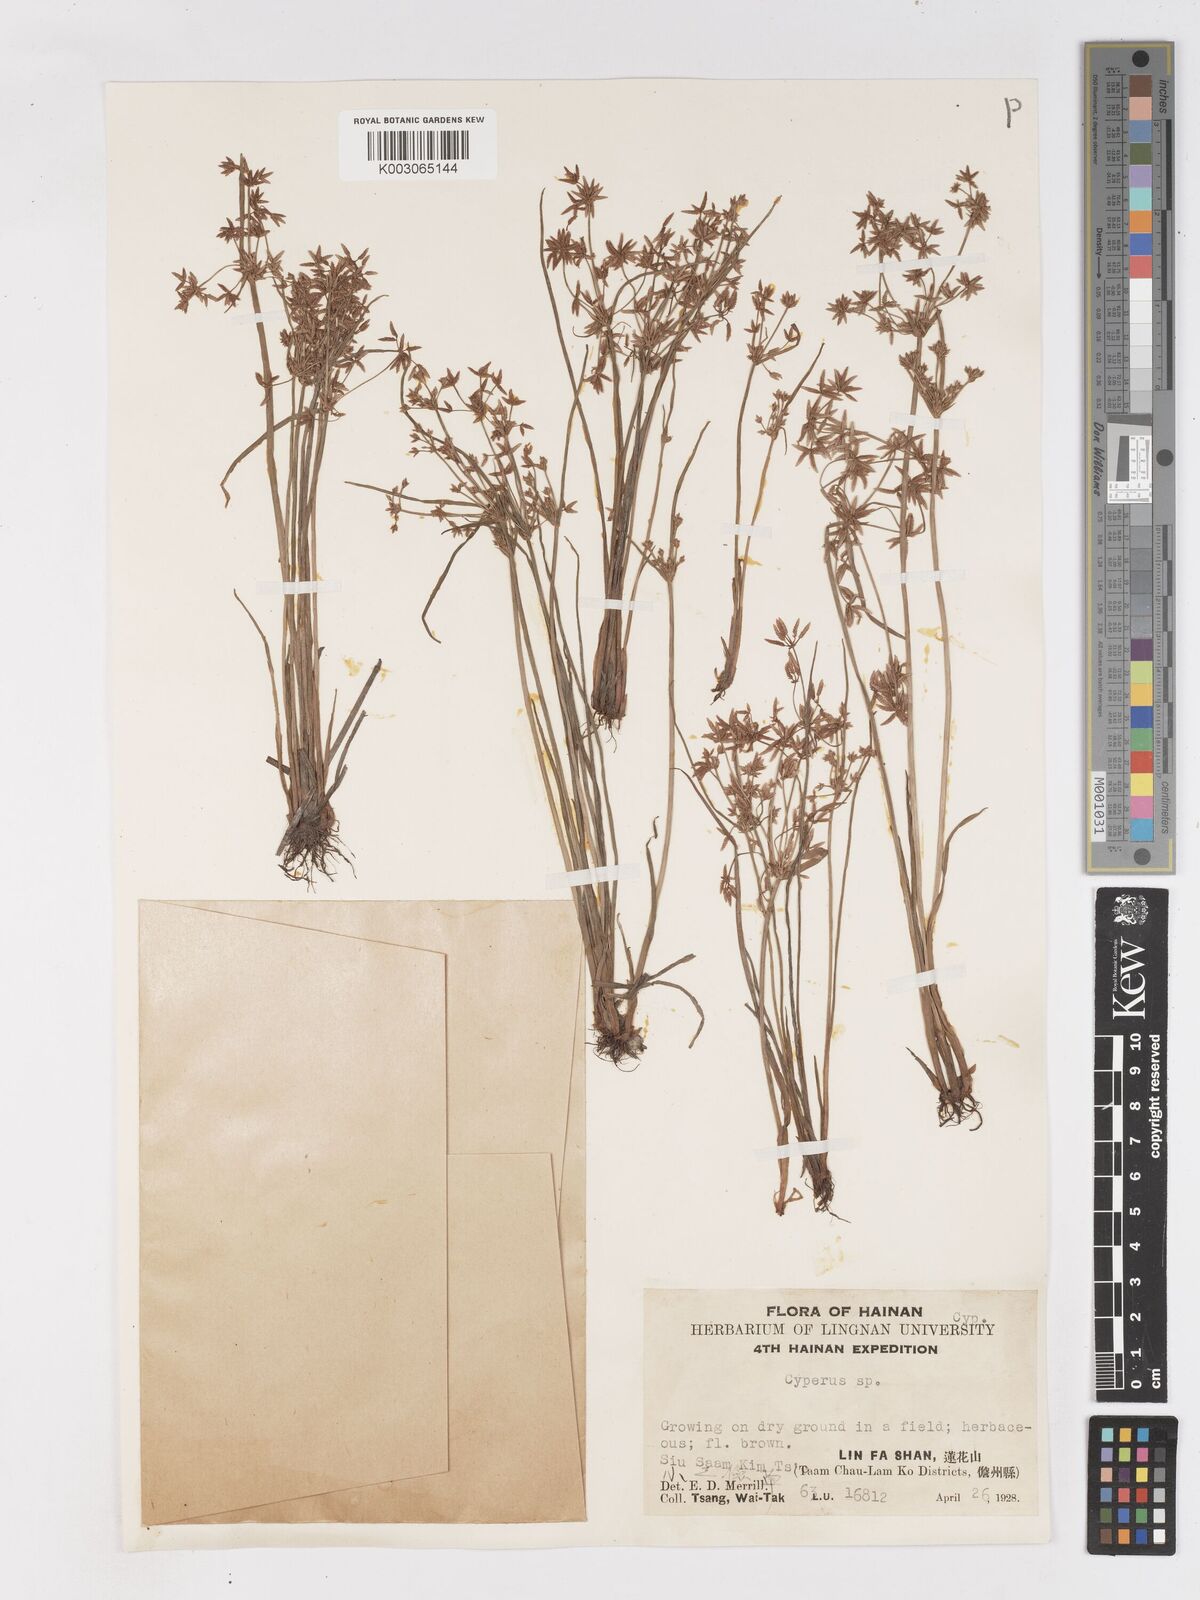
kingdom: Plantae
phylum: Tracheophyta
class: Liliopsida
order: Poales
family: Cyperaceae
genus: Cyperus
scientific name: Cyperus haspan
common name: Haspan flatsedge
